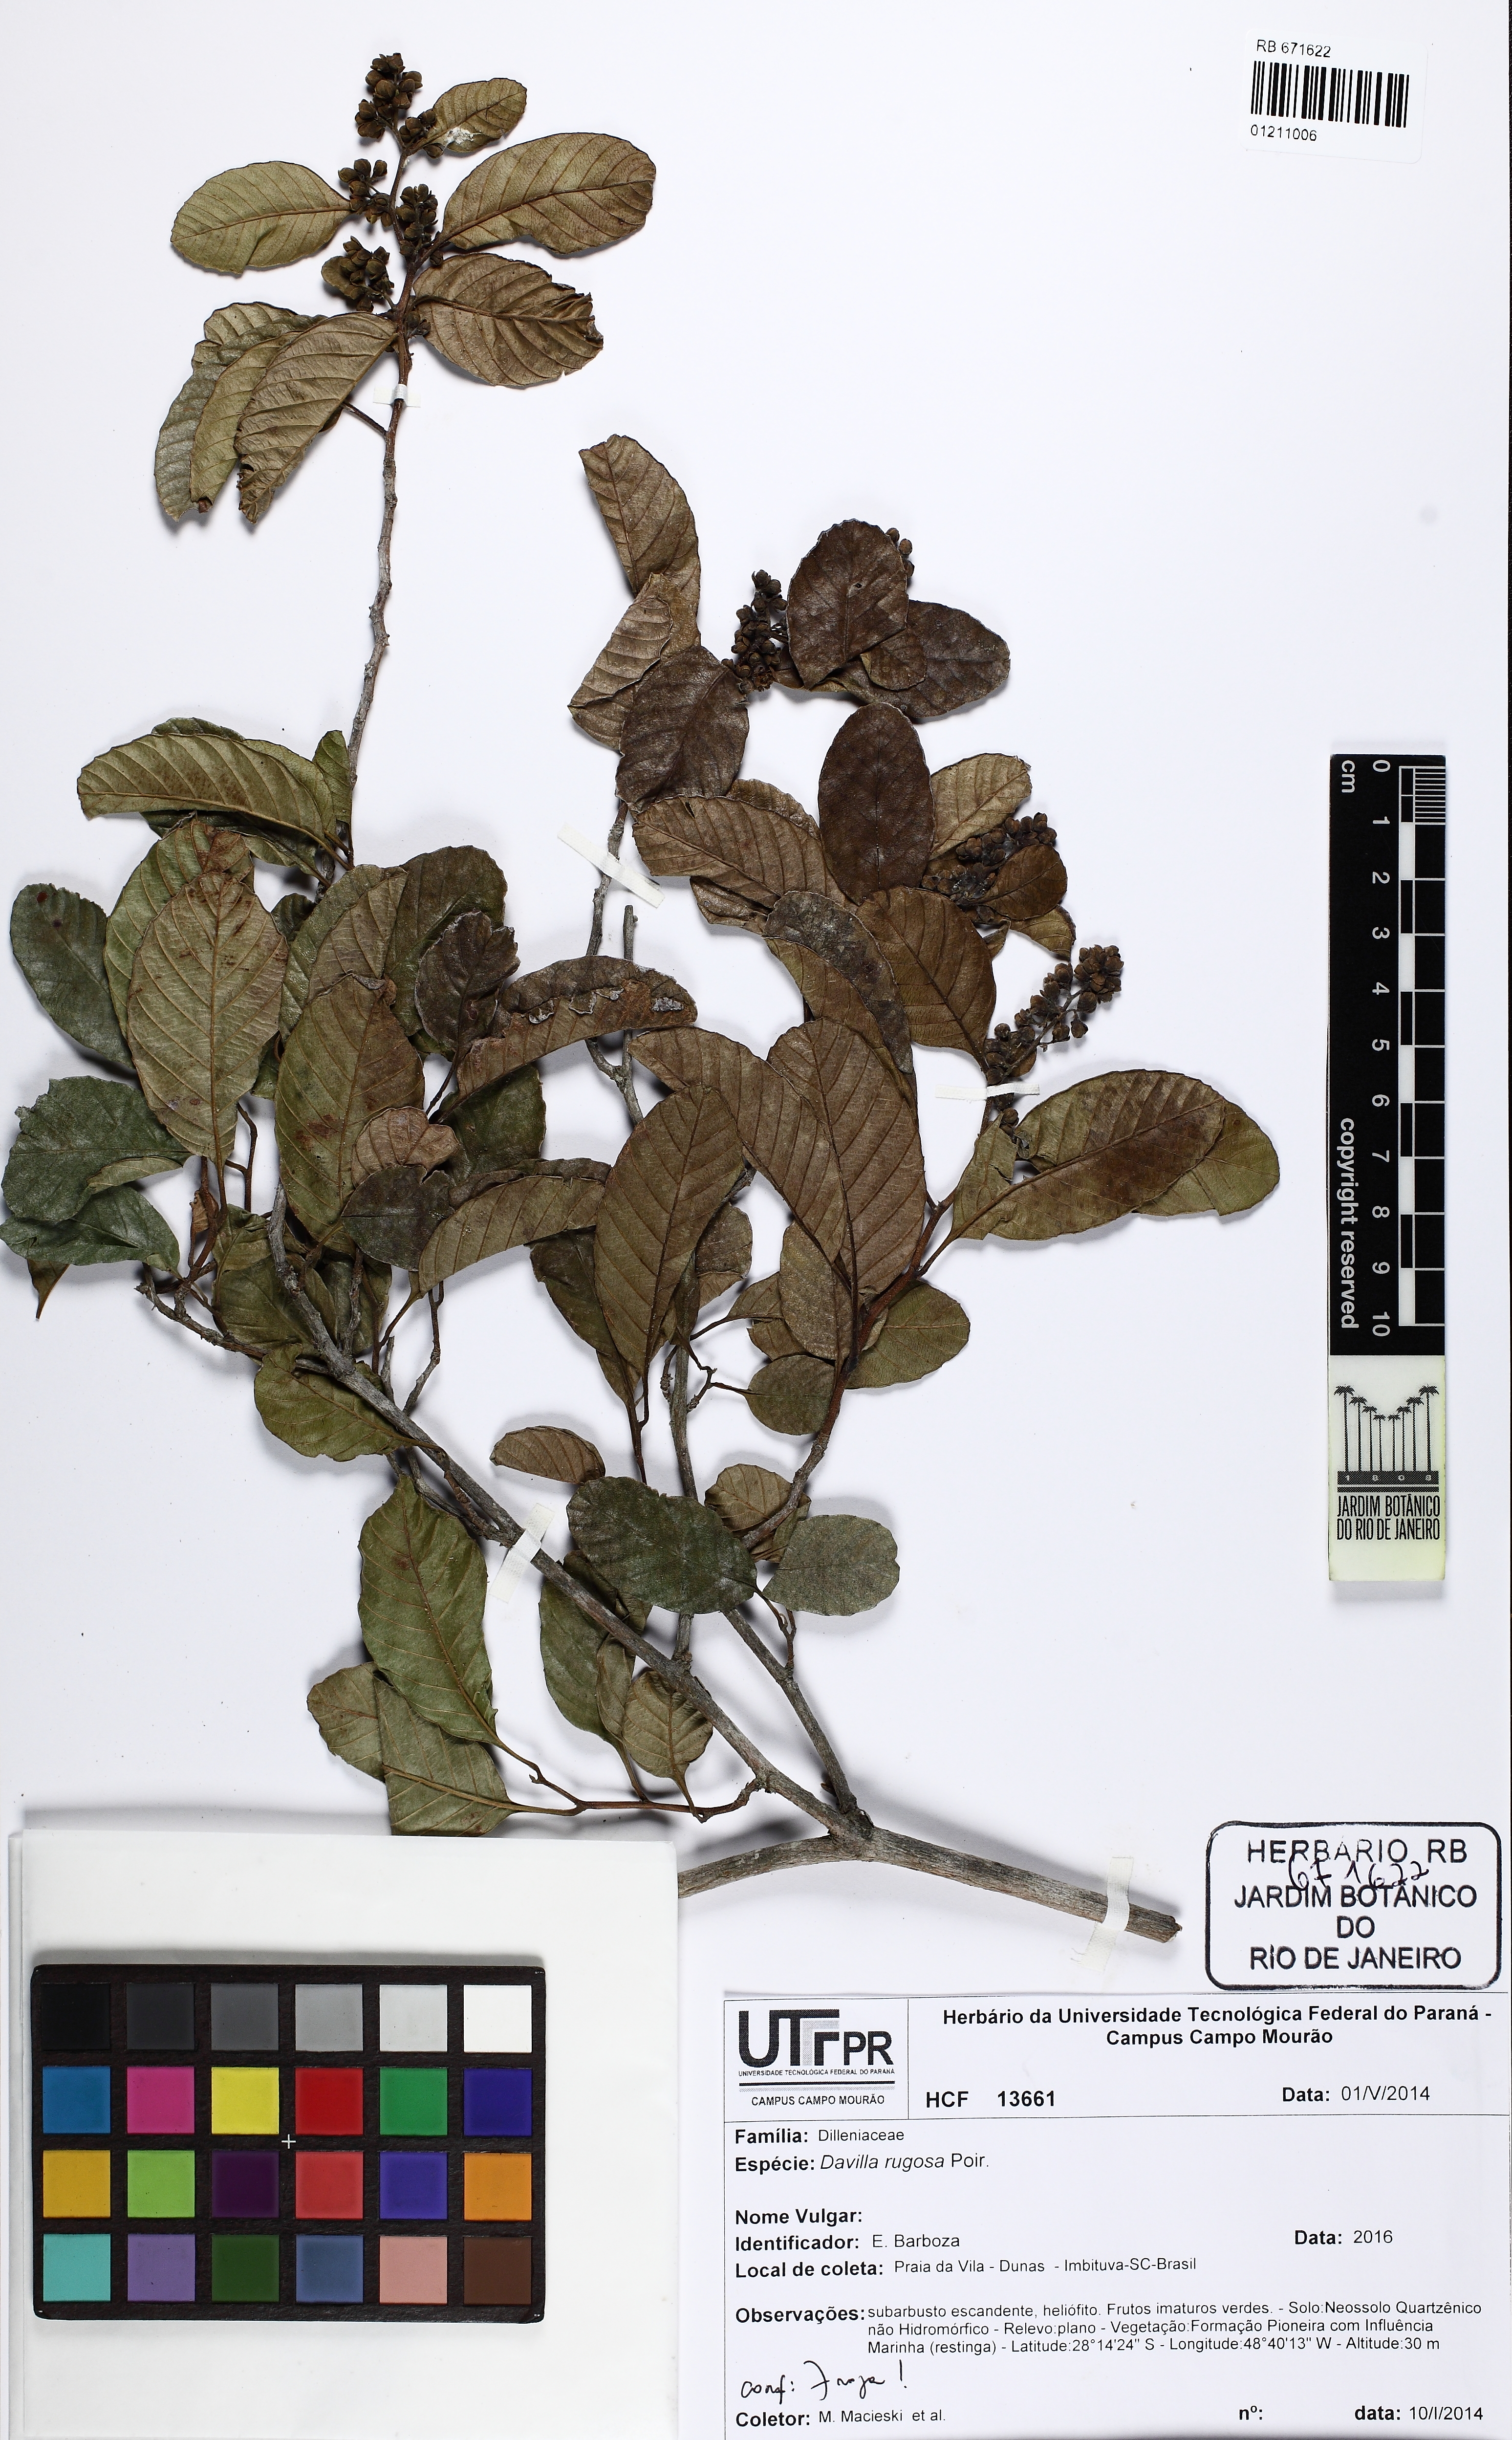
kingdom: Plantae
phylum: Tracheophyta
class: Magnoliopsida
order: Dilleniales
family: Dilleniaceae
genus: Davilla
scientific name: Davilla rugosa
